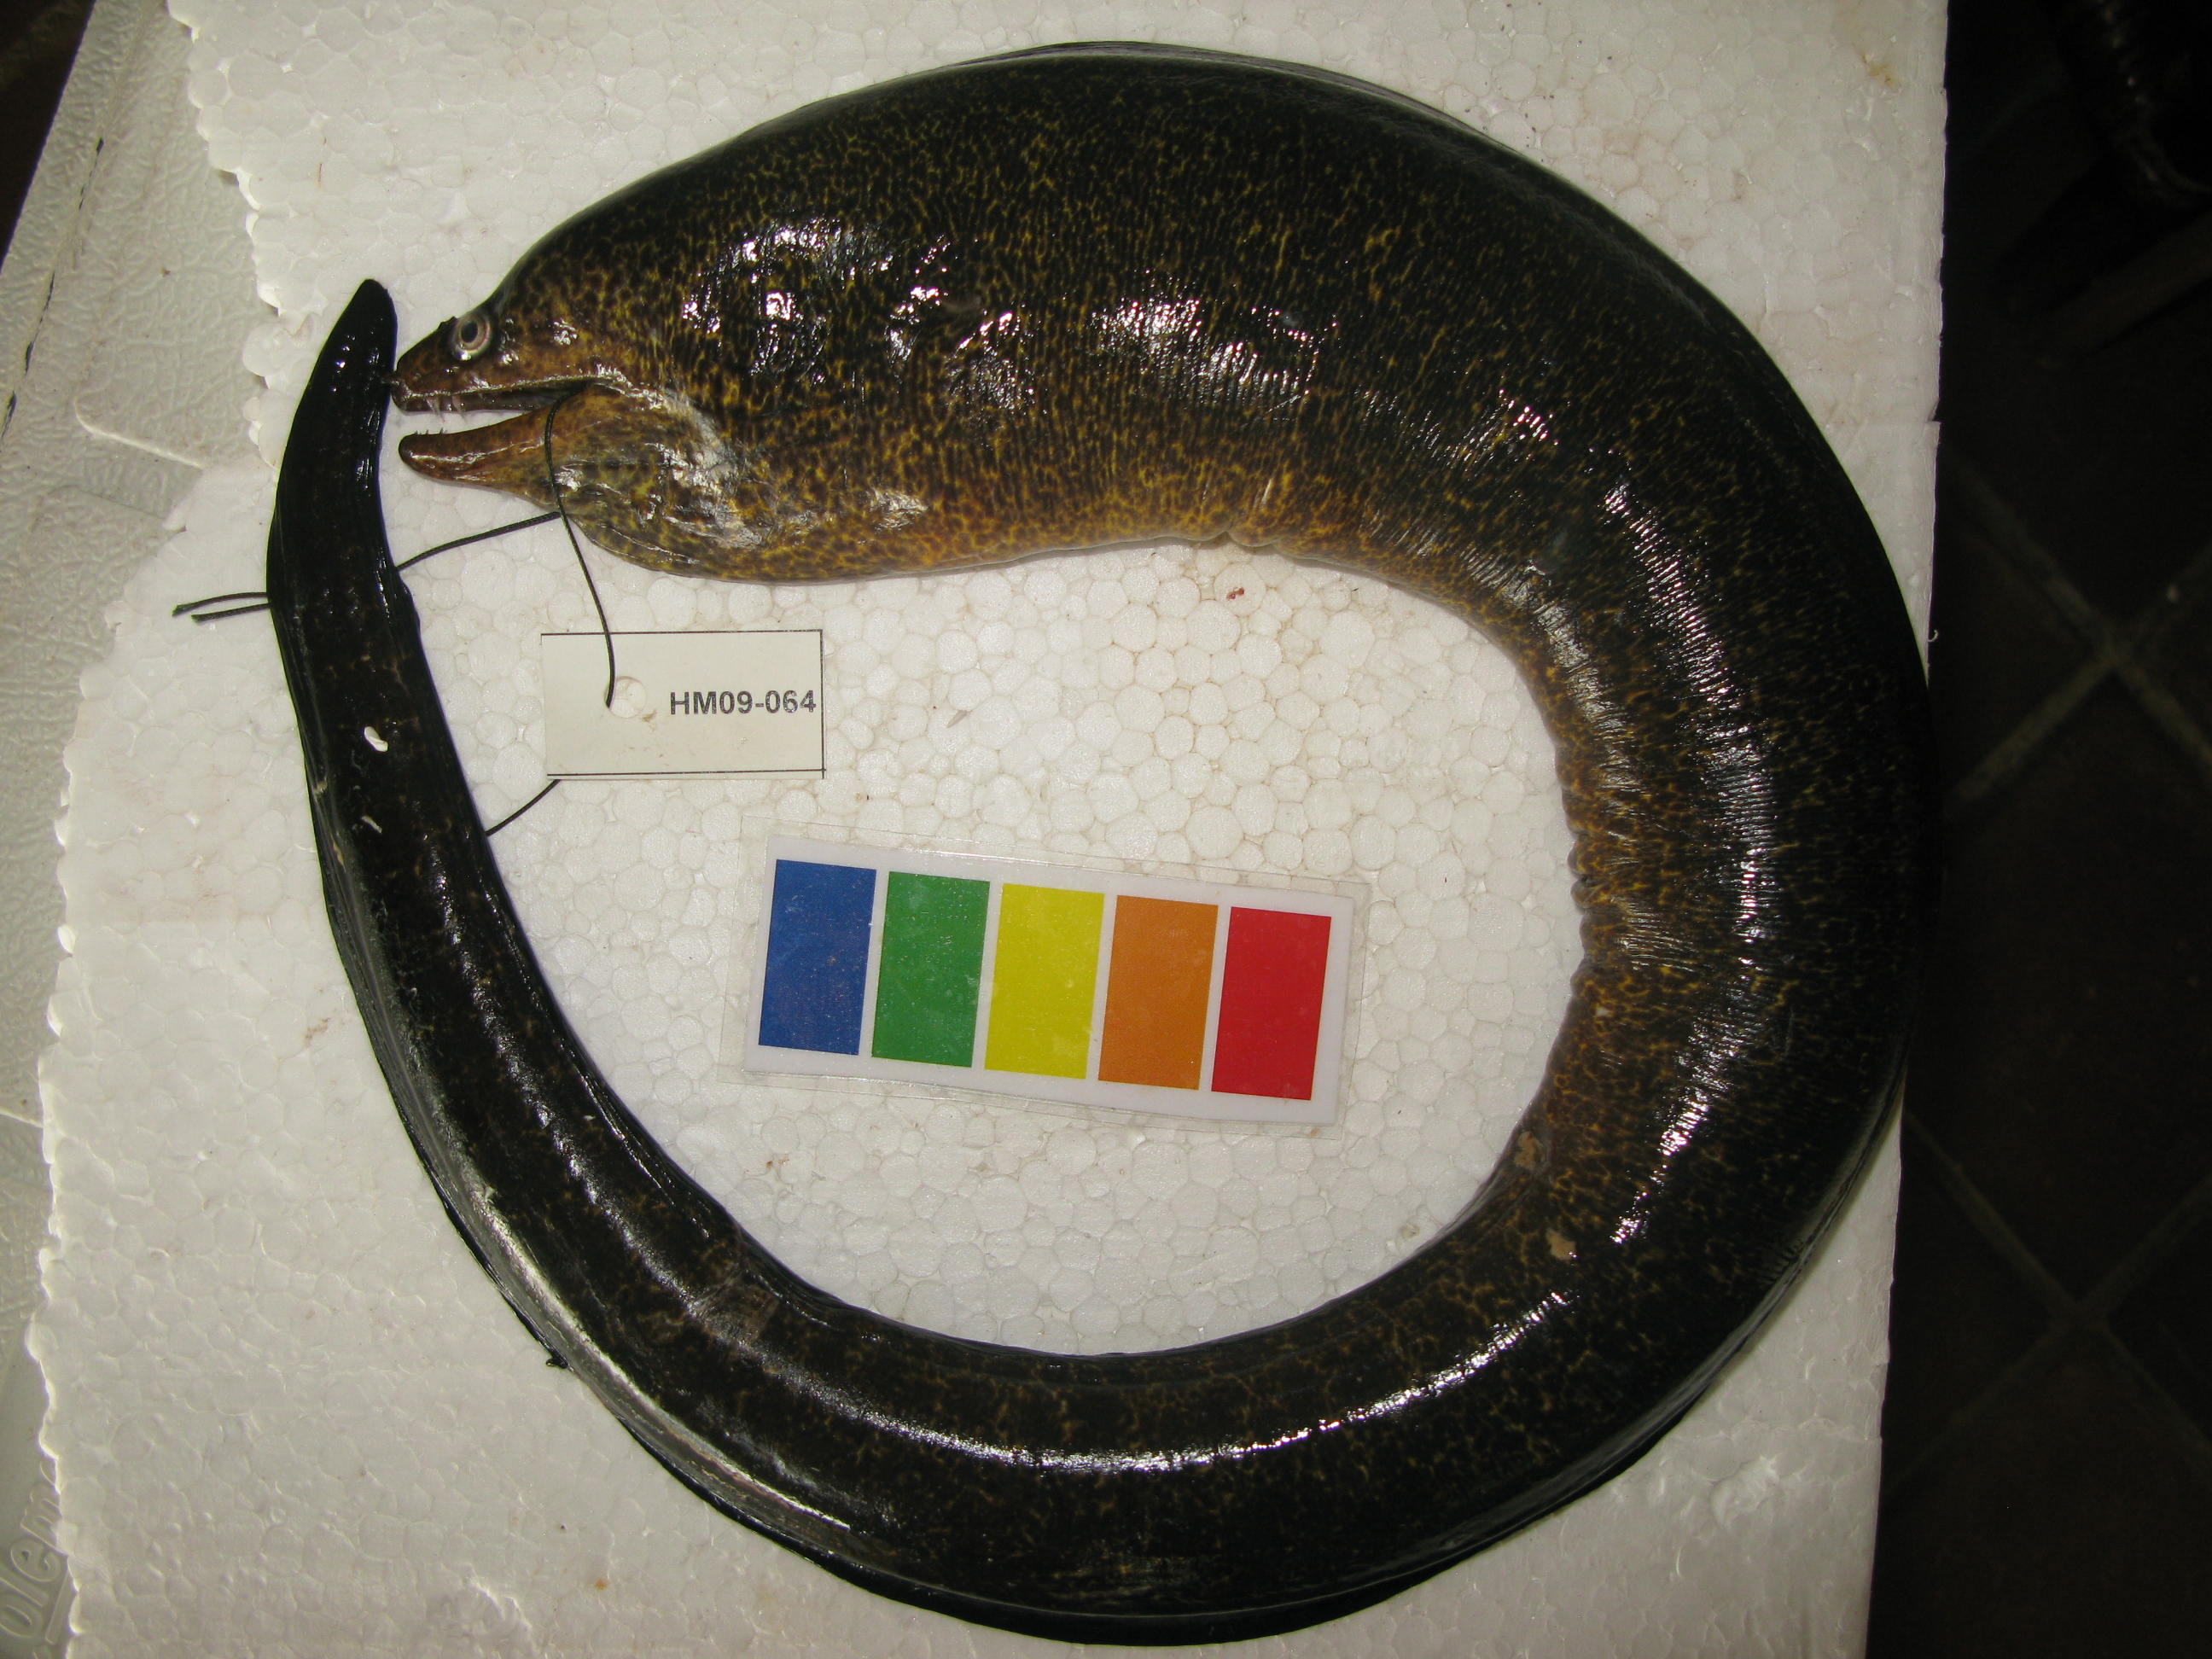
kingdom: Animalia
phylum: Chordata
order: Anguilliformes
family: Muraenidae
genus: Gymnothorax
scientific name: Gymnothorax elaineheemstrae
